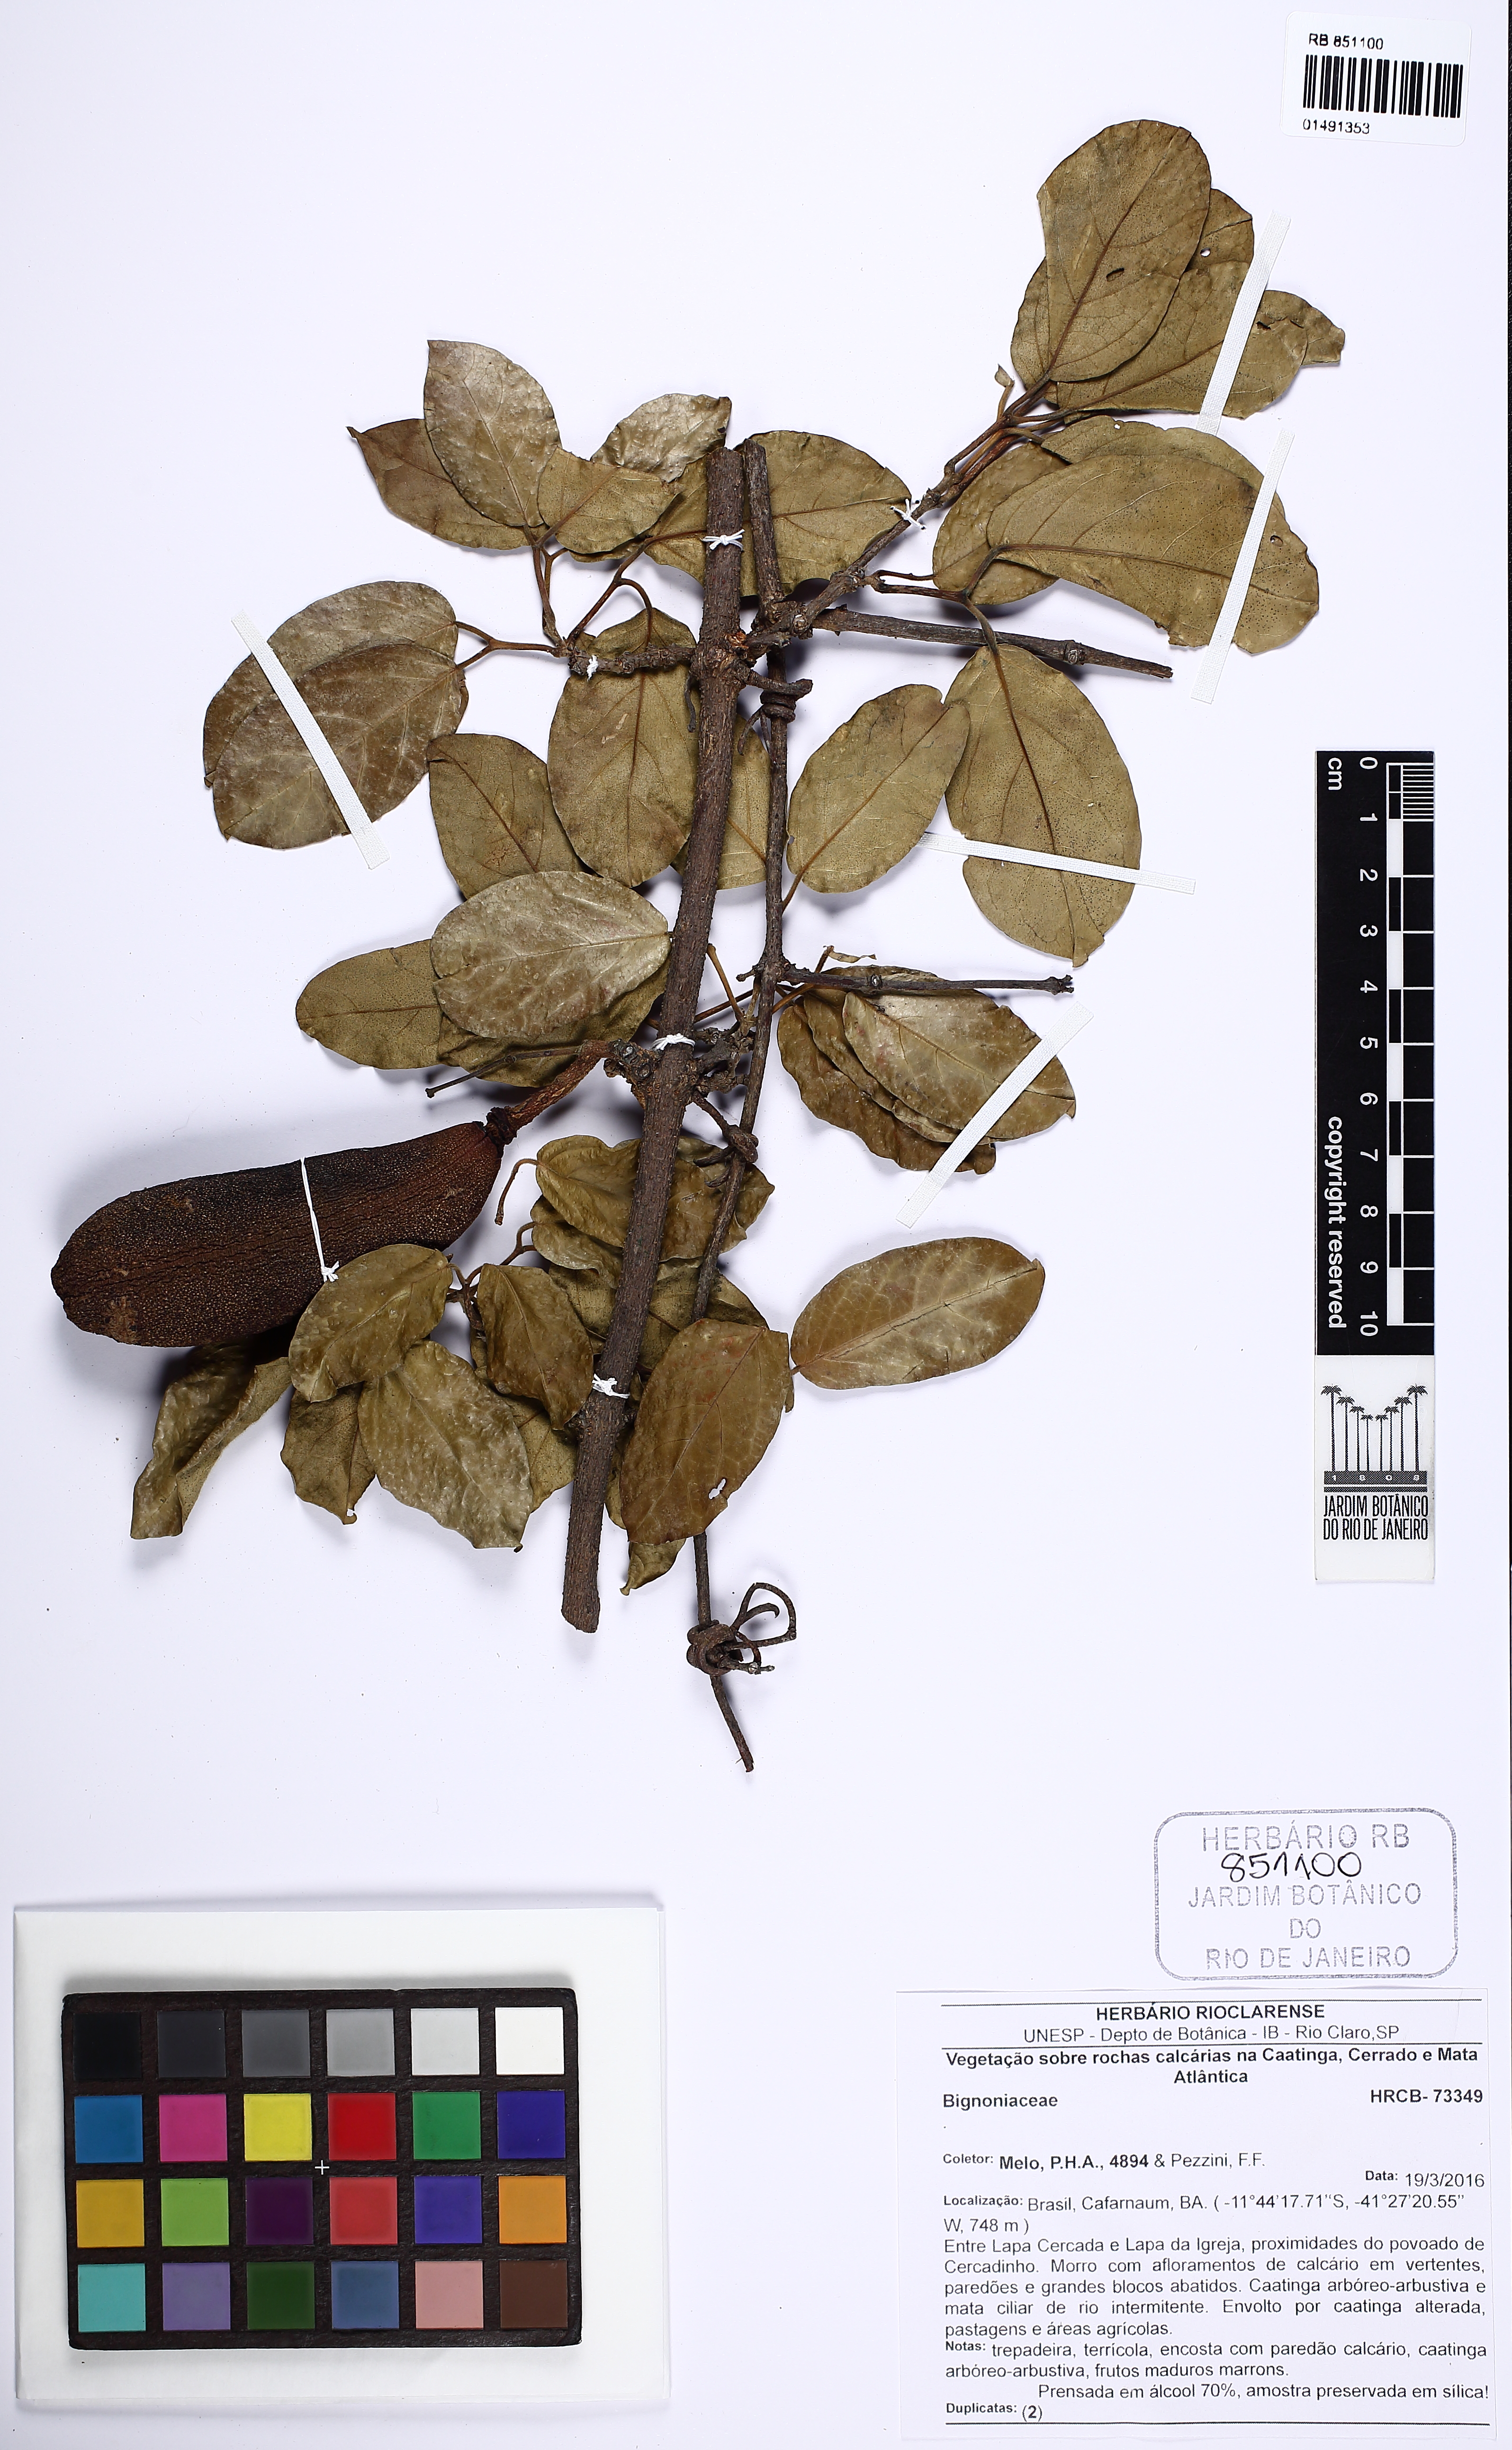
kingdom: Plantae
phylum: Tracheophyta
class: Magnoliopsida
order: Lamiales
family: Bignoniaceae
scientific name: Bignoniaceae
